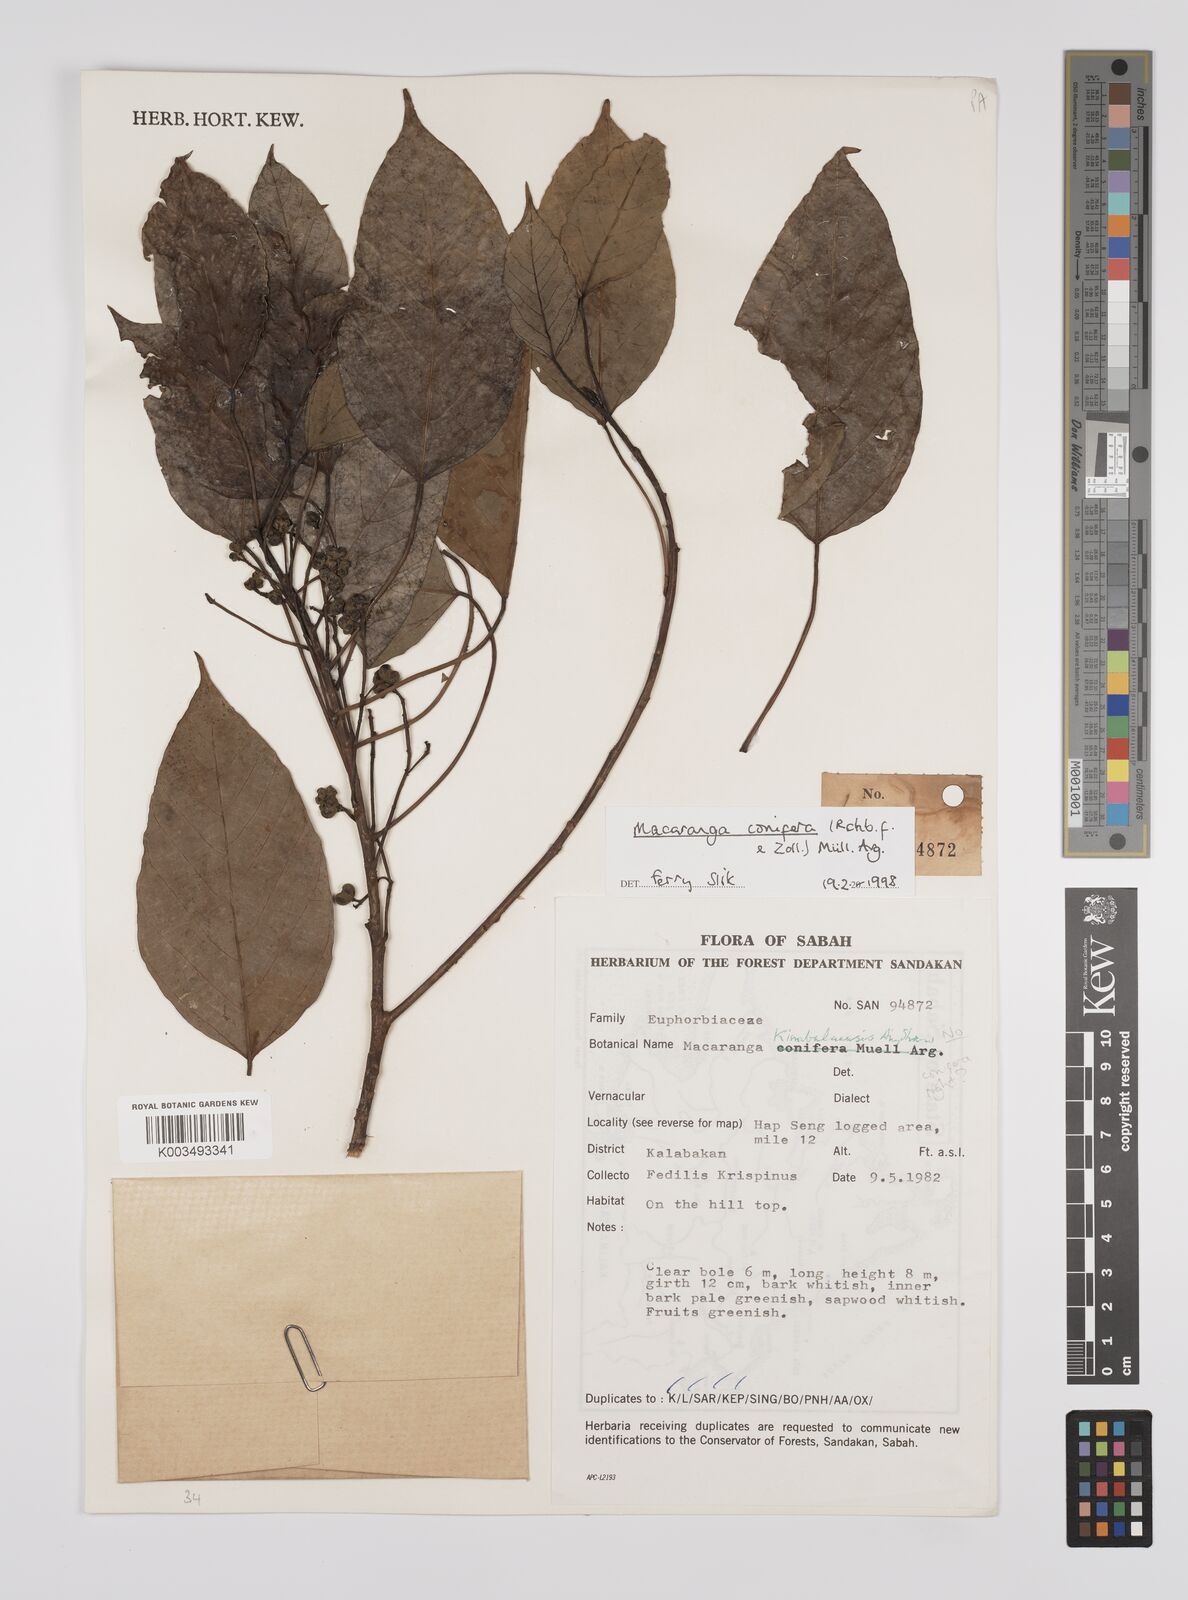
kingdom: Plantae
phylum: Tracheophyta
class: Magnoliopsida
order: Malpighiales
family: Euphorbiaceae
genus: Macaranga
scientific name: Macaranga conifera
